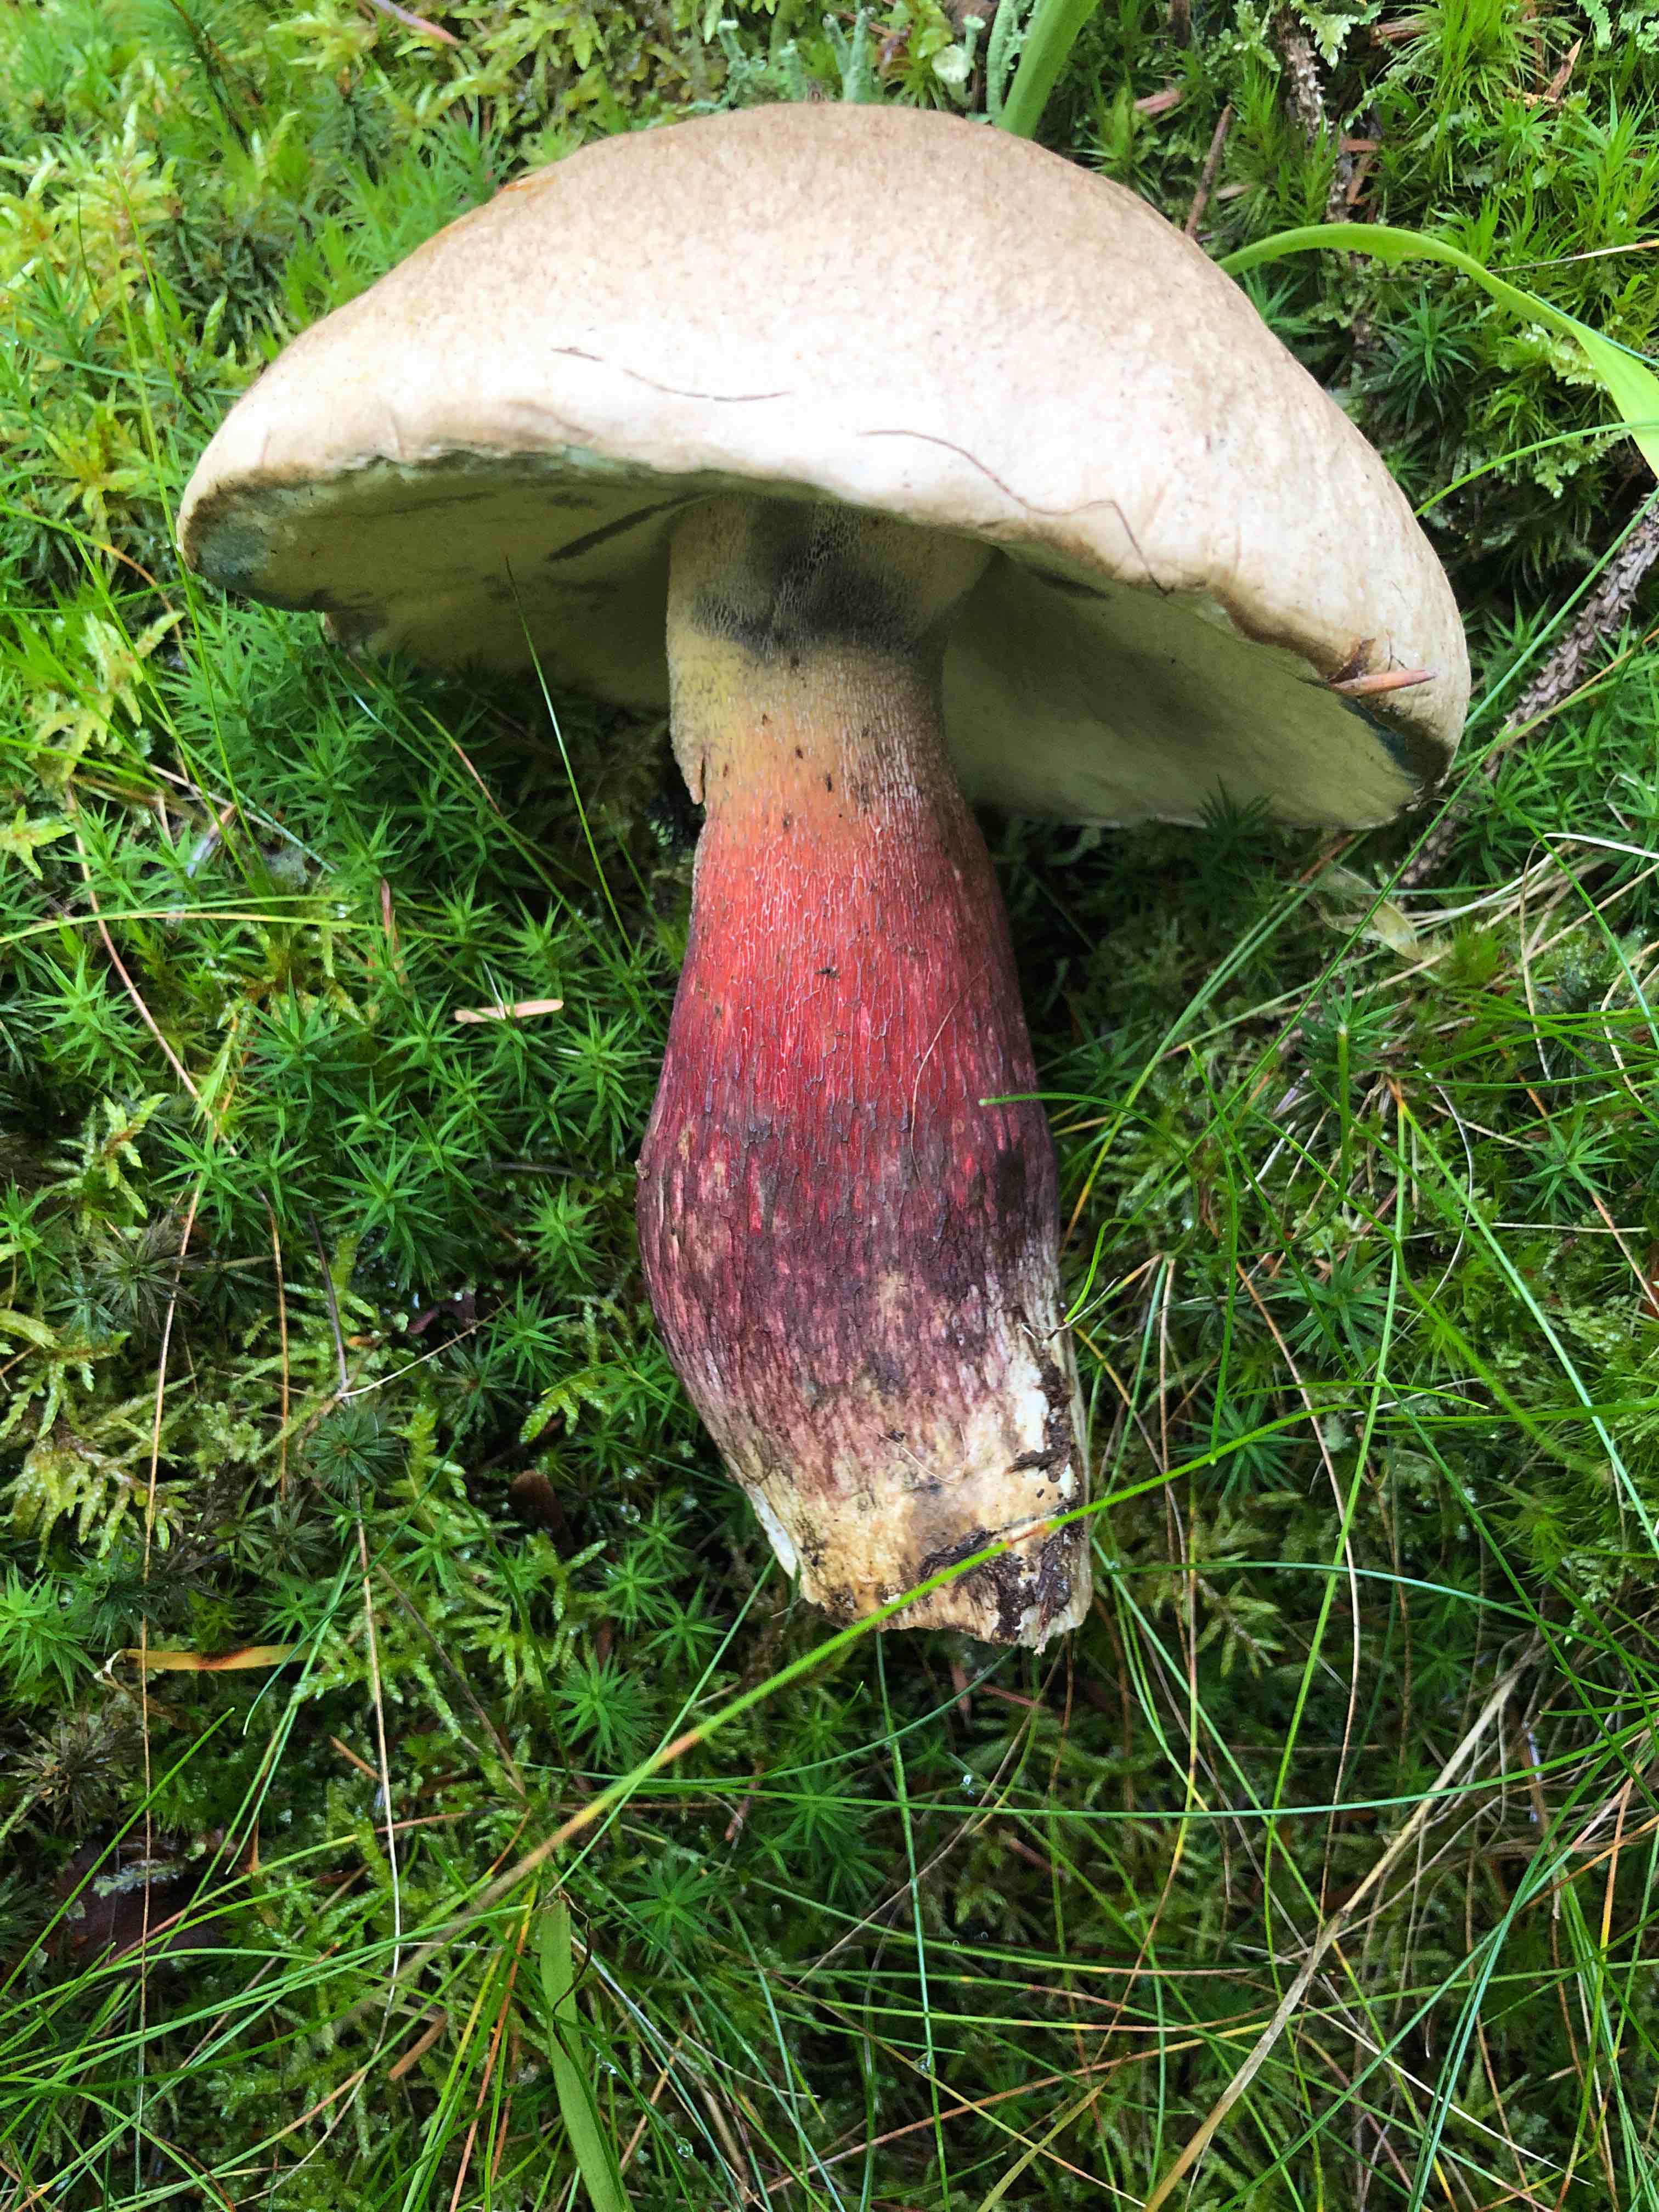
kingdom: Fungi
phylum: Basidiomycota
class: Agaricomycetes
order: Boletales
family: Boletaceae
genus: Caloboletus
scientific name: Caloboletus calopus
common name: skønfodet rørhat
